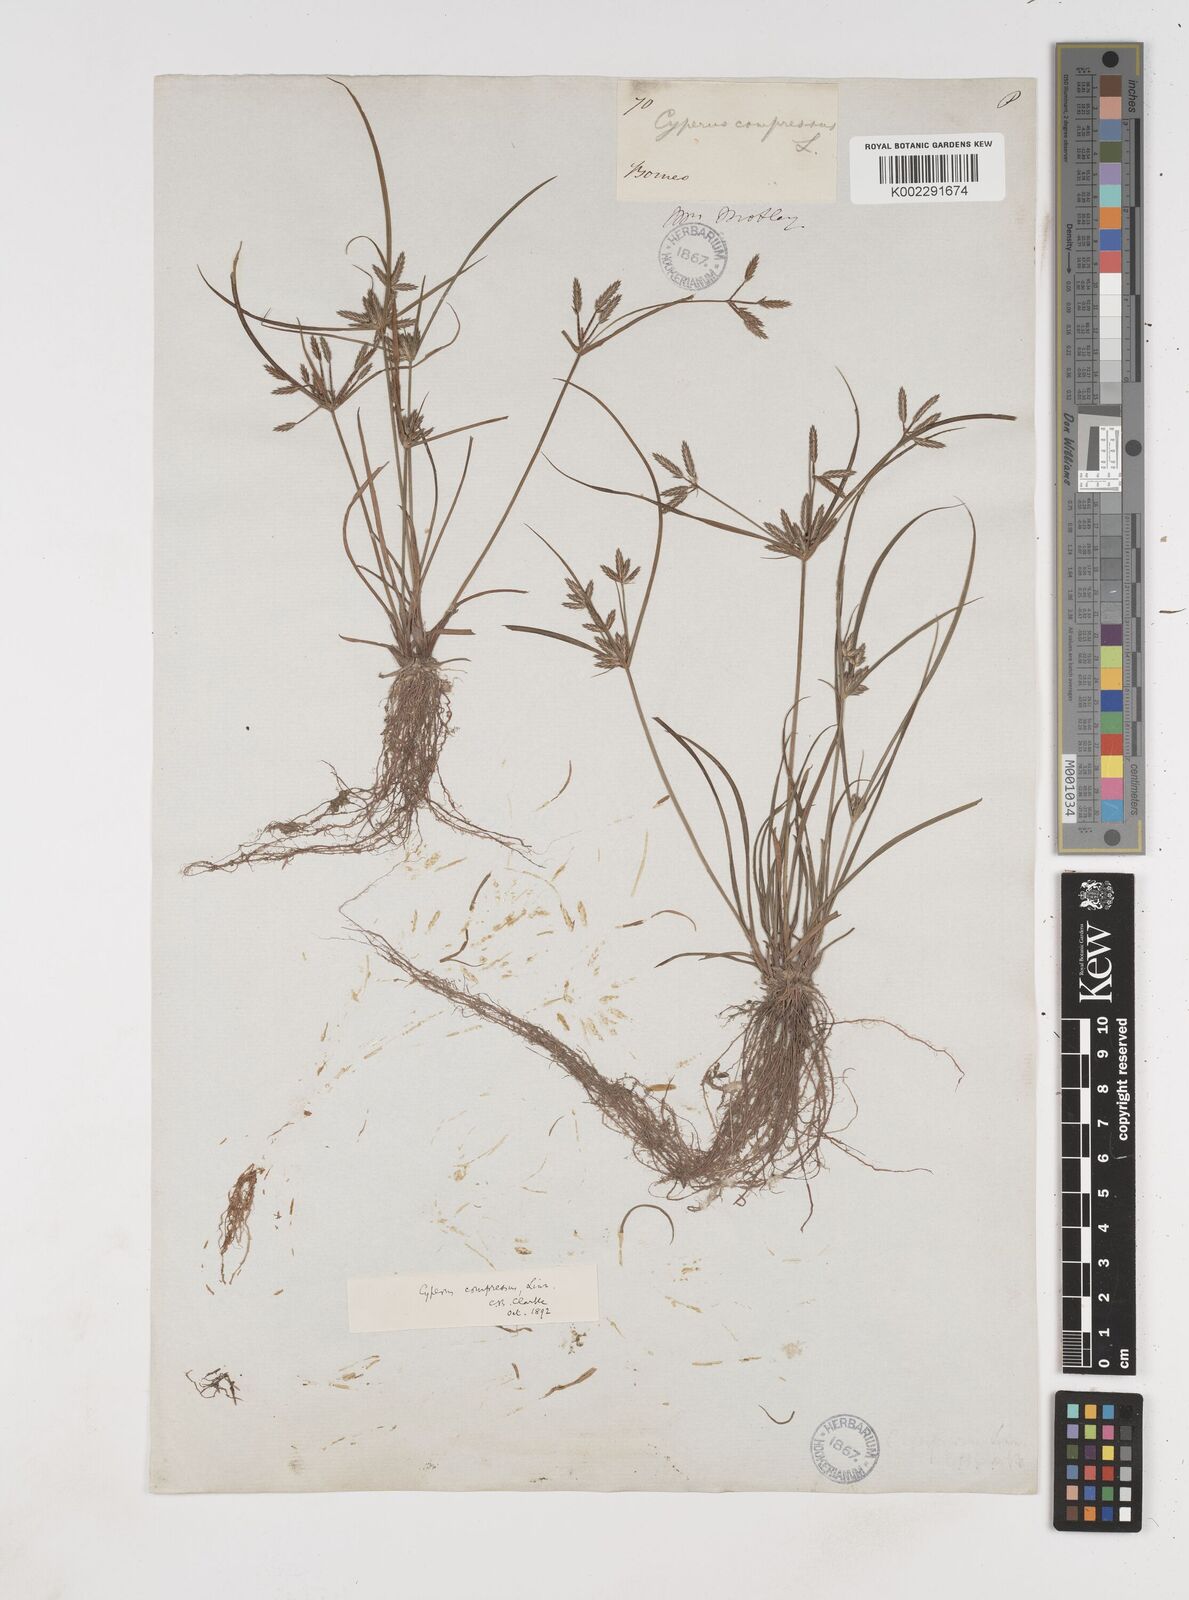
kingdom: Plantae
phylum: Tracheophyta
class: Liliopsida
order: Poales
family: Cyperaceae
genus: Cyperus
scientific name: Cyperus compressus
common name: Poorland flatsedge
